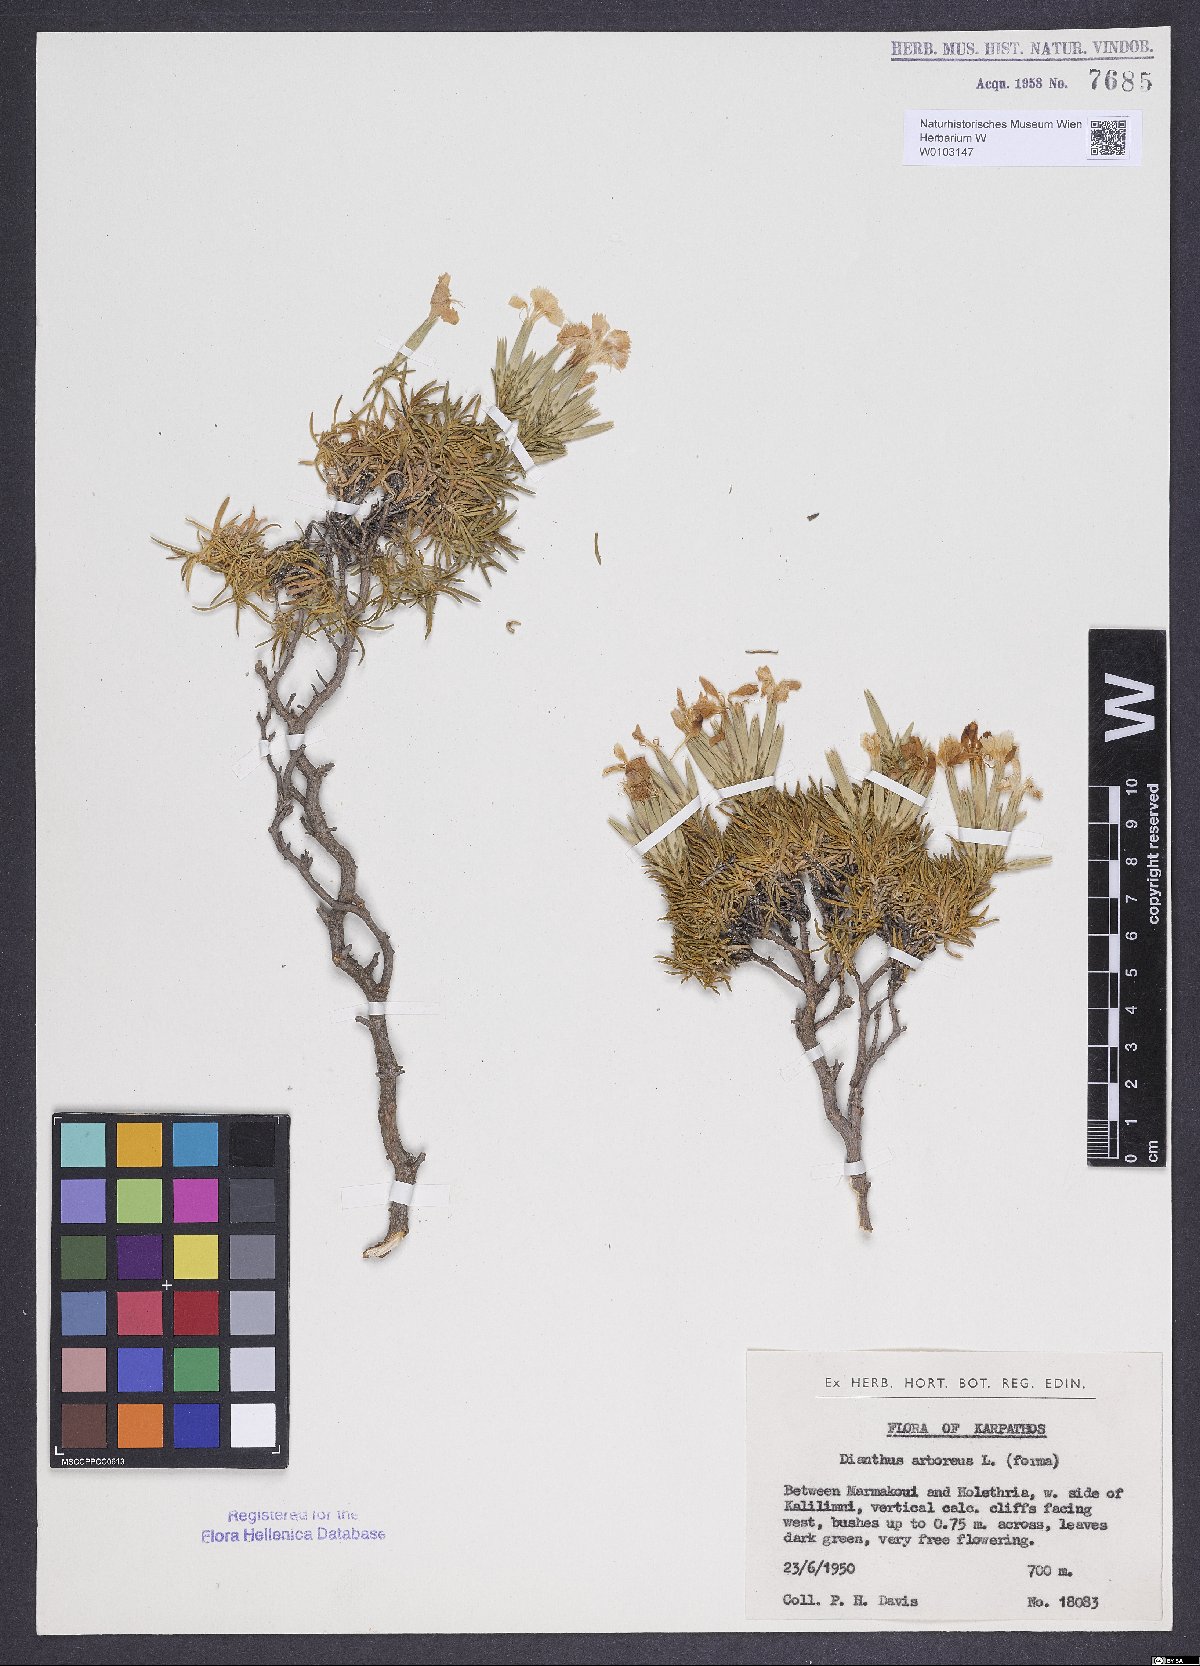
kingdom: Plantae
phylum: Tracheophyta
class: Magnoliopsida
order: Caryophyllales
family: Caryophyllaceae
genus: Dianthus
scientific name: Dianthus juniperinus
